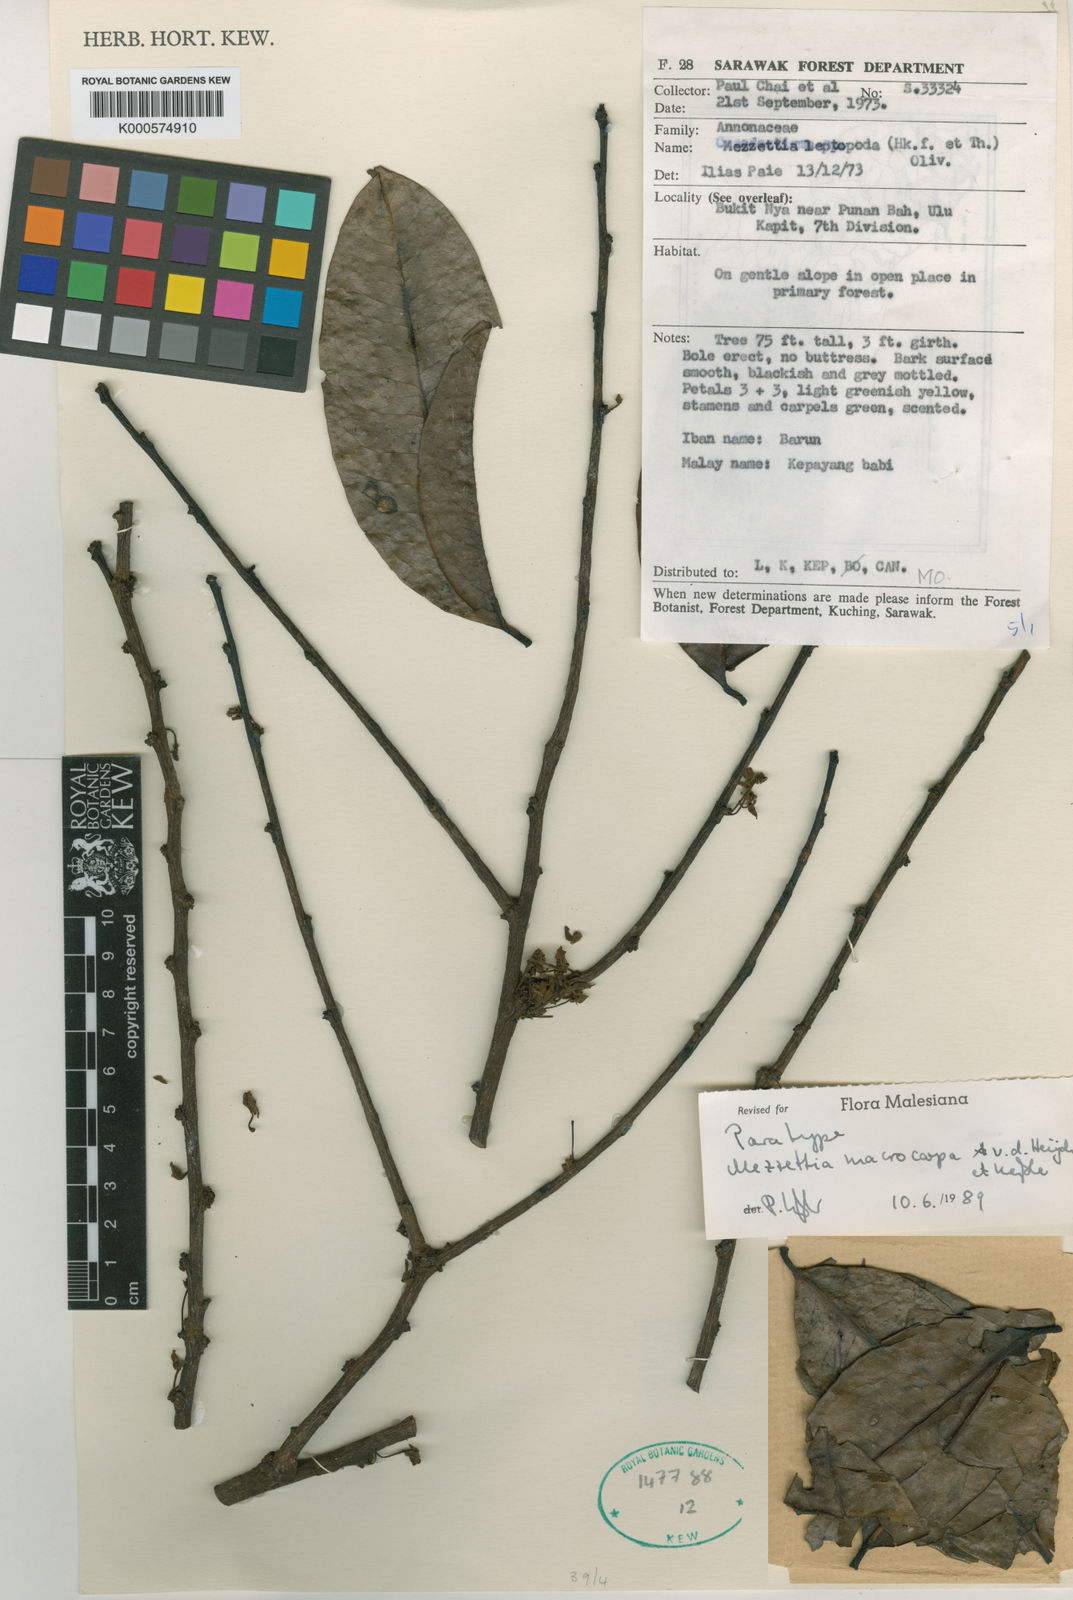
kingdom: Plantae
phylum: Tracheophyta
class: Magnoliopsida
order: Magnoliales
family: Annonaceae
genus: Mezzettia
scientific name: Mezzettia
